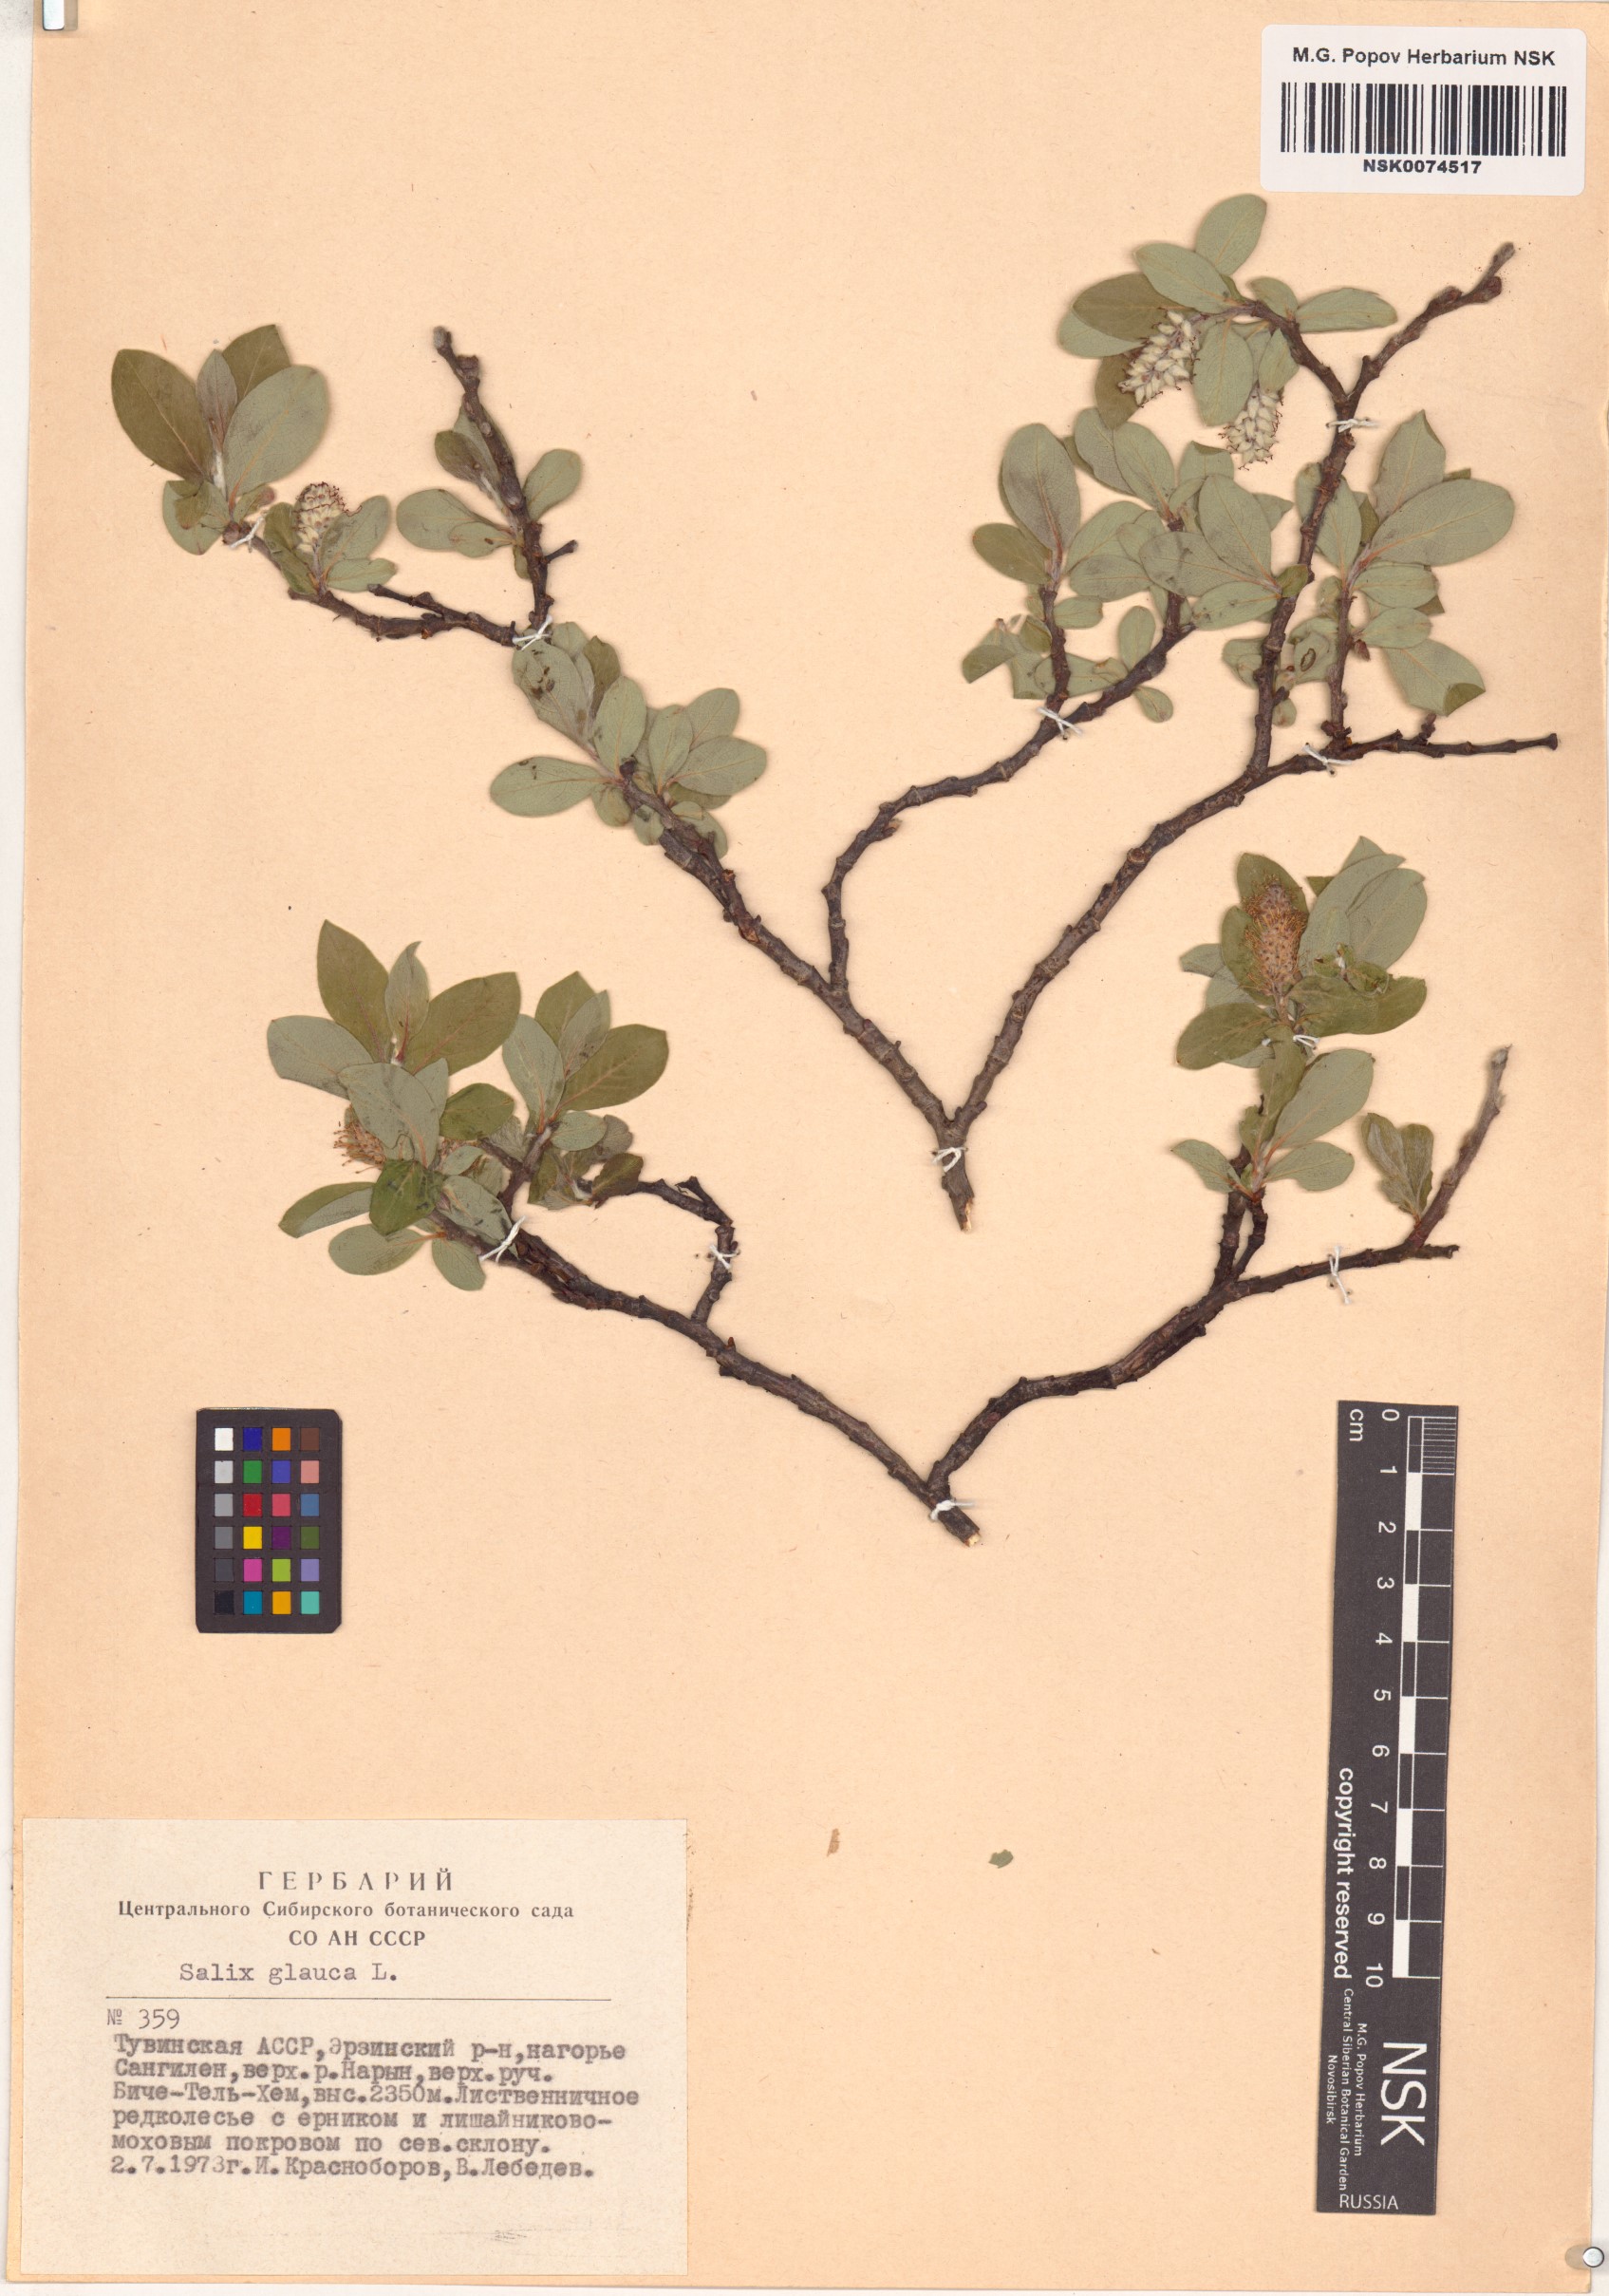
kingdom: Plantae
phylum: Tracheophyta
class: Magnoliopsida
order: Malpighiales
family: Salicaceae
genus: Salix
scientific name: Salix glauca
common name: Glaucous willow
